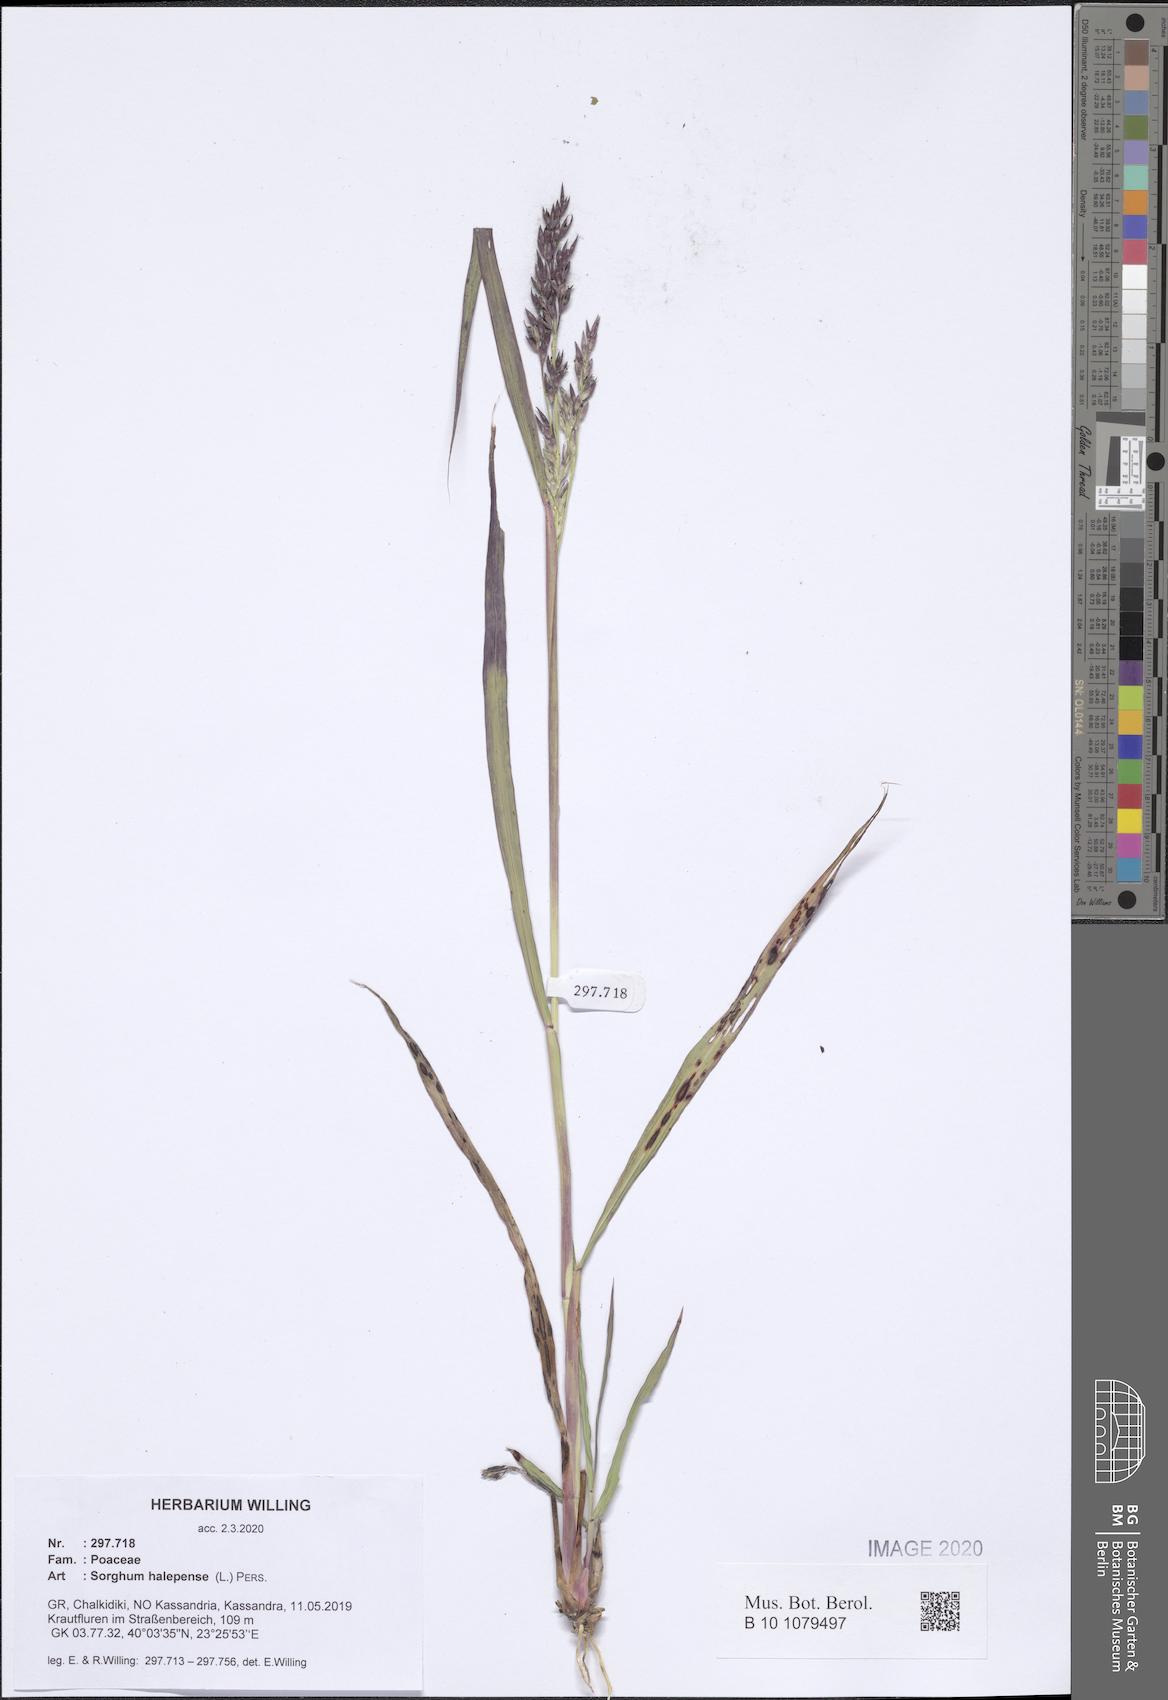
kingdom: Plantae
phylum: Tracheophyta
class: Liliopsida
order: Poales
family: Poaceae
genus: Sorghum
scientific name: Sorghum halepense
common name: Johnson-grass
